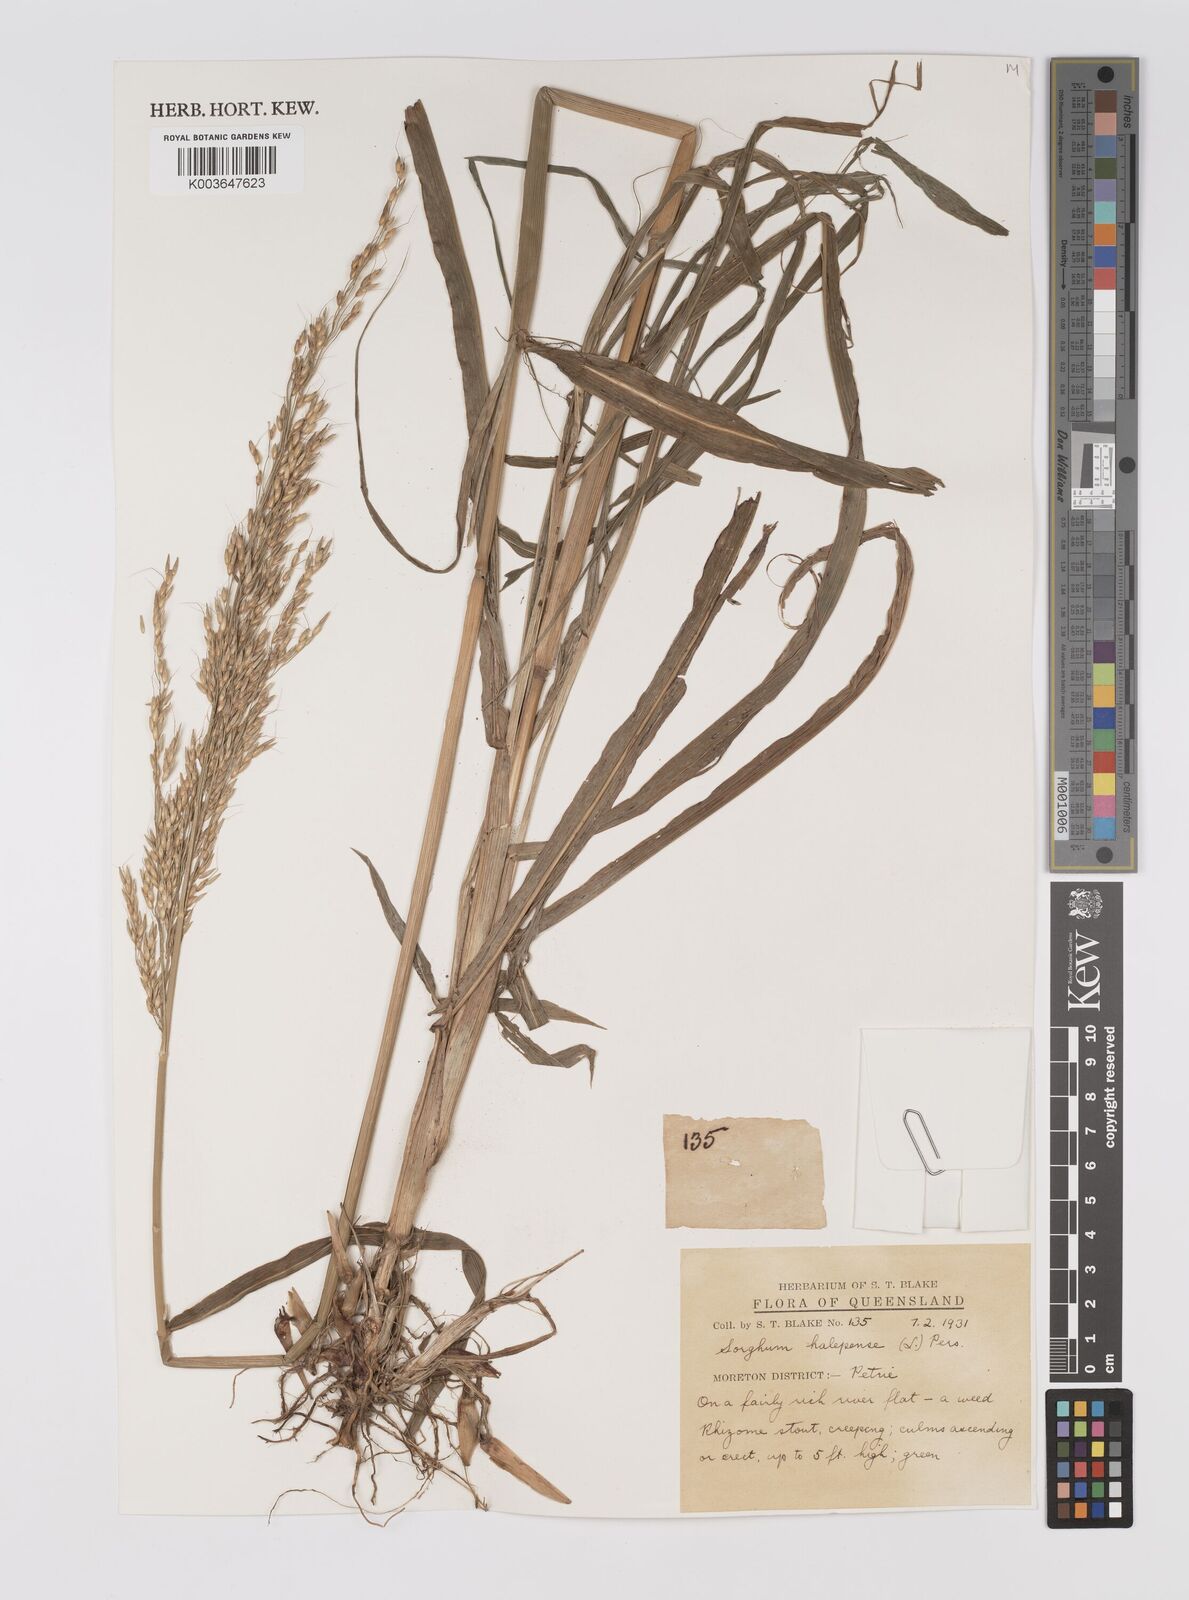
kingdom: Plantae
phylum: Tracheophyta
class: Liliopsida
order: Poales
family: Poaceae
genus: Sorghum
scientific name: Sorghum halepense
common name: Johnson-grass
